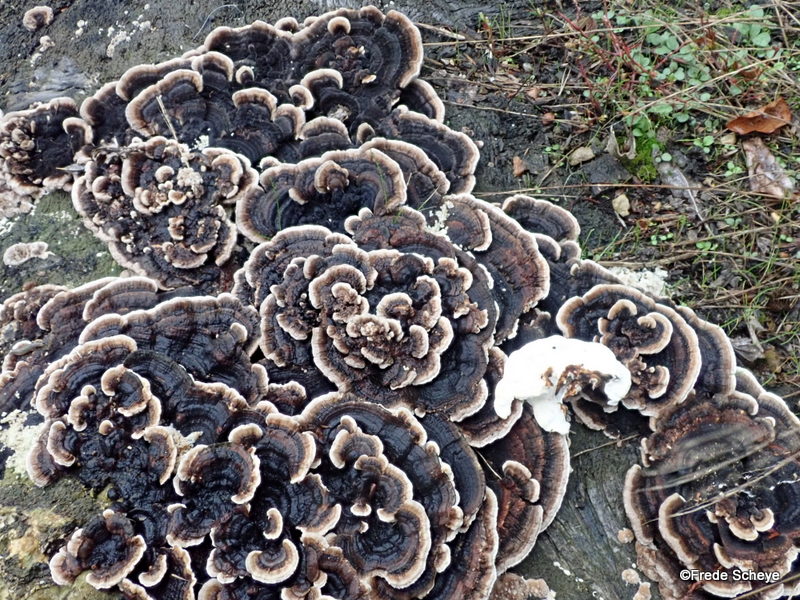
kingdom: Fungi
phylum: Basidiomycota
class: Agaricomycetes
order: Polyporales
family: Polyporaceae
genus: Trametes
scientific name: Trametes versicolor
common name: broget læderporesvamp
